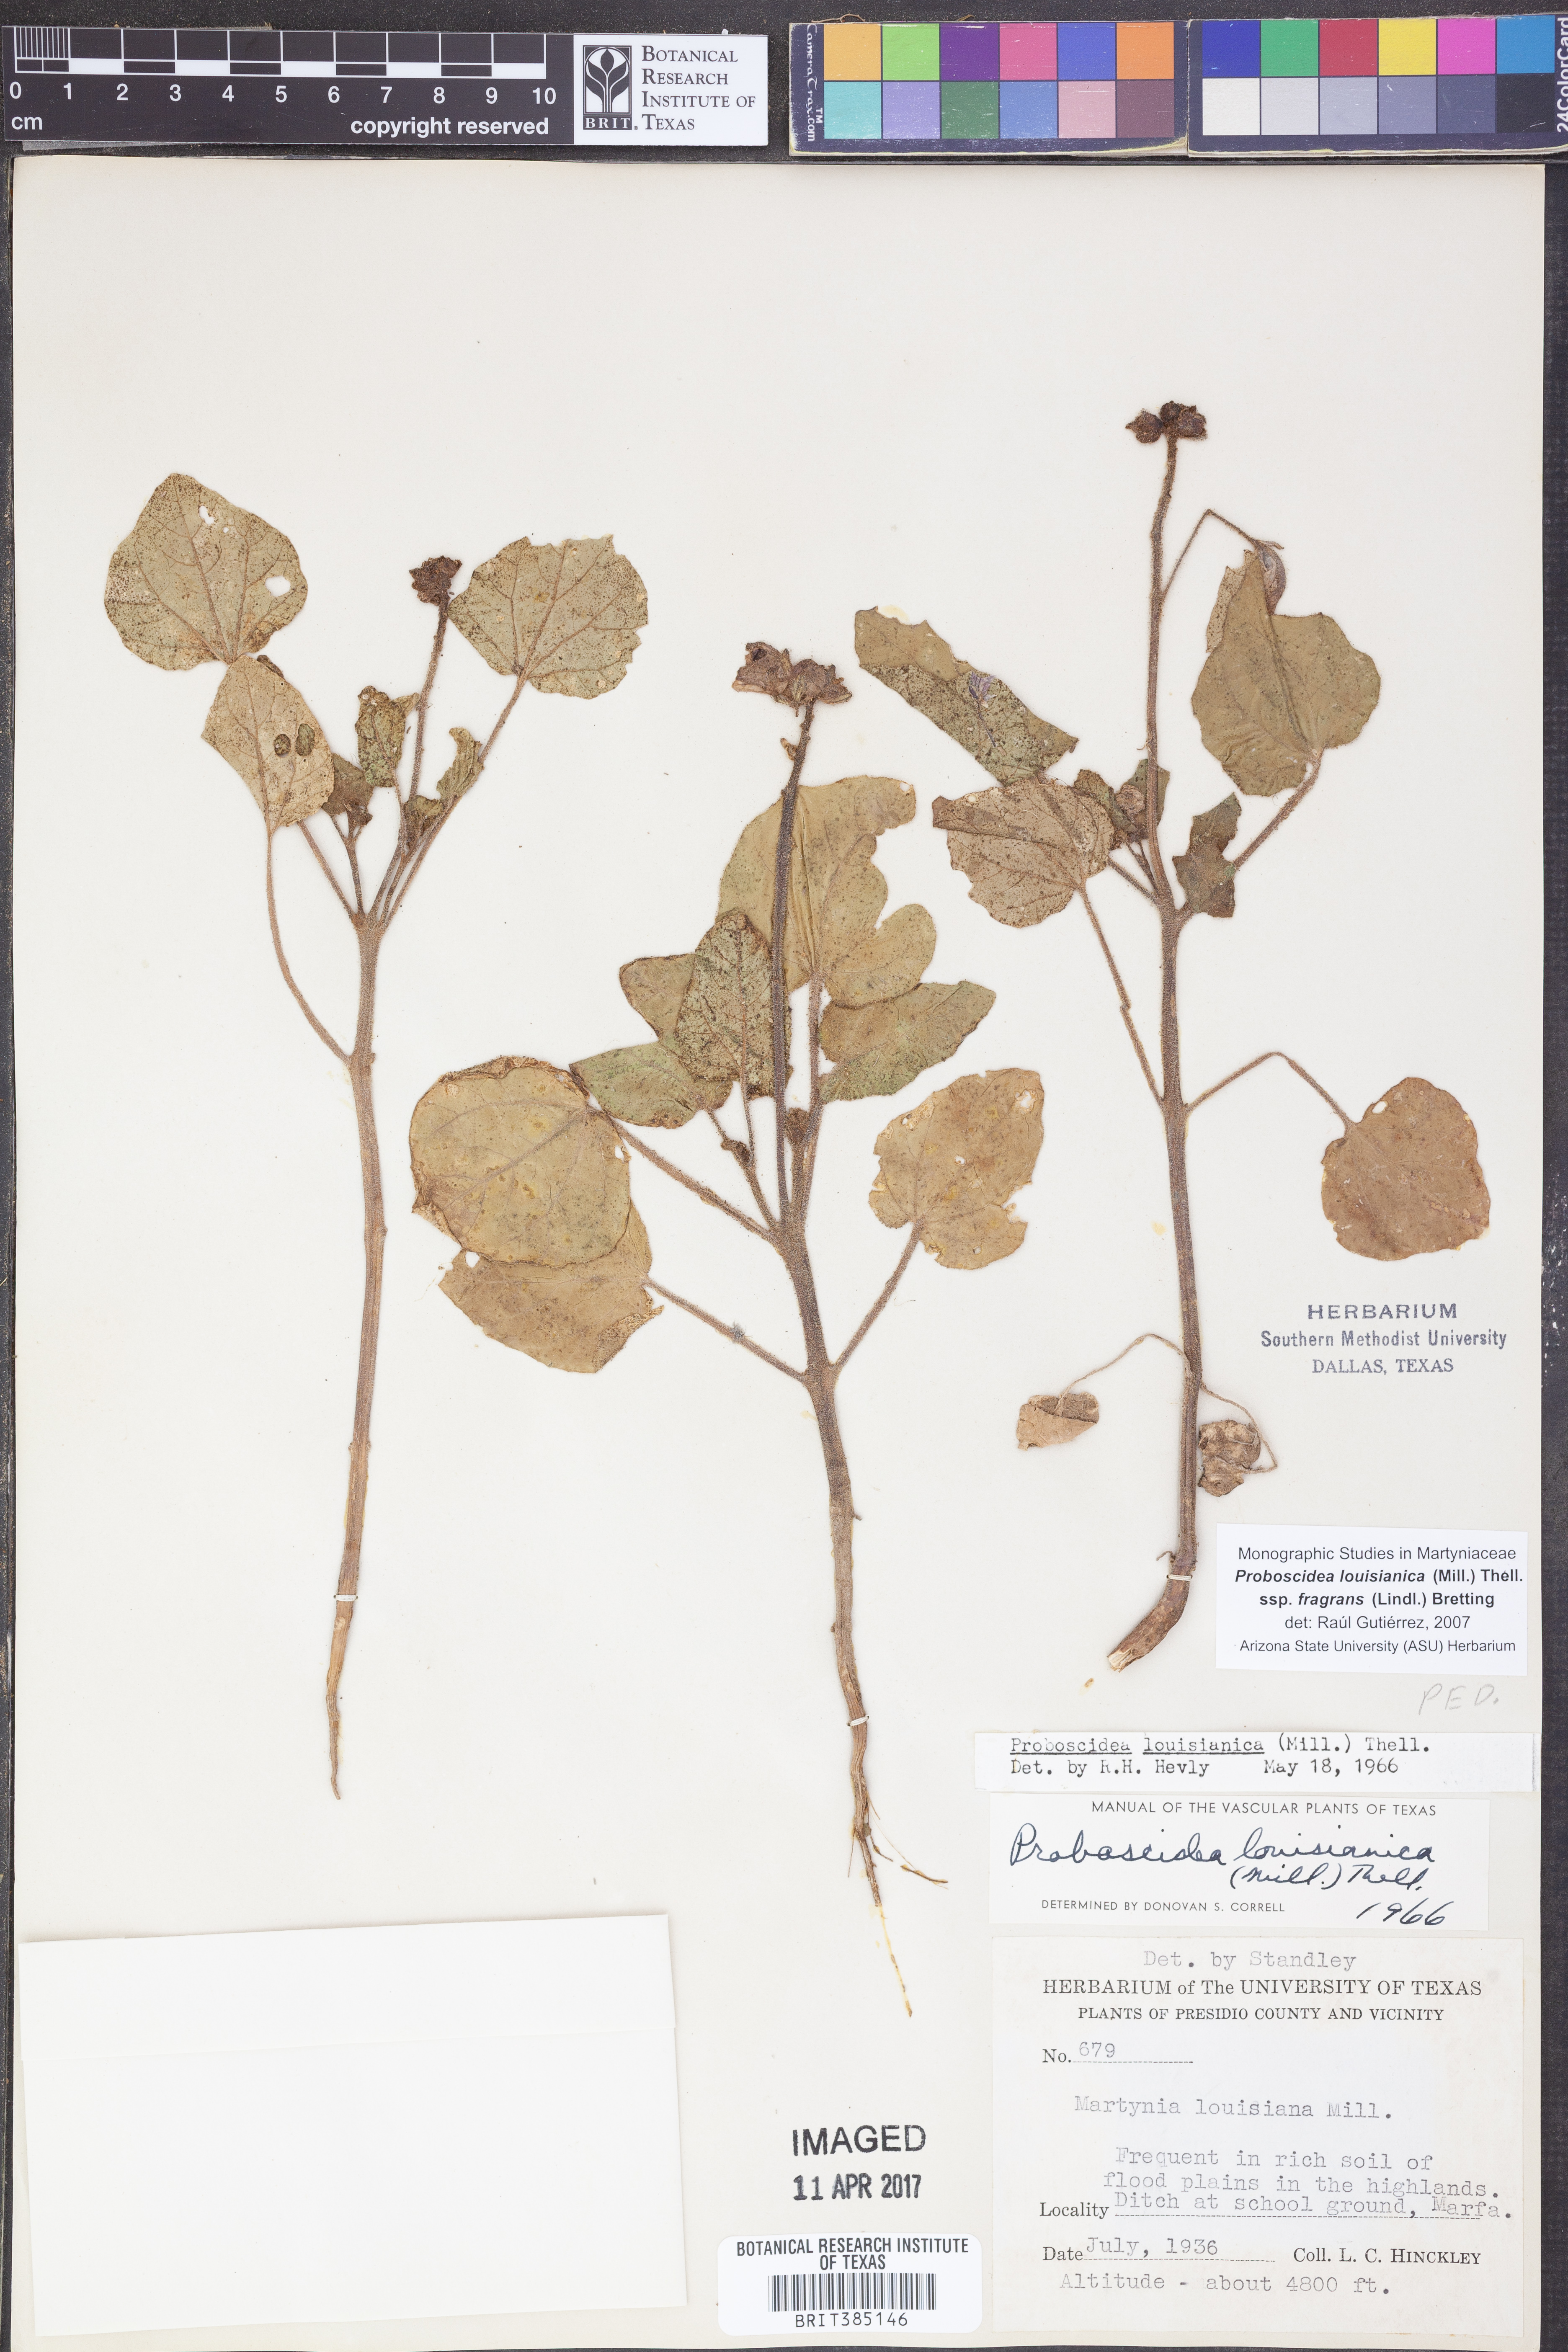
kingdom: Plantae
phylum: Tracheophyta
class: Magnoliopsida
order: Lamiales
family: Martyniaceae
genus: Proboscidea
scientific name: Proboscidea louisianica
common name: Elephant tusks
